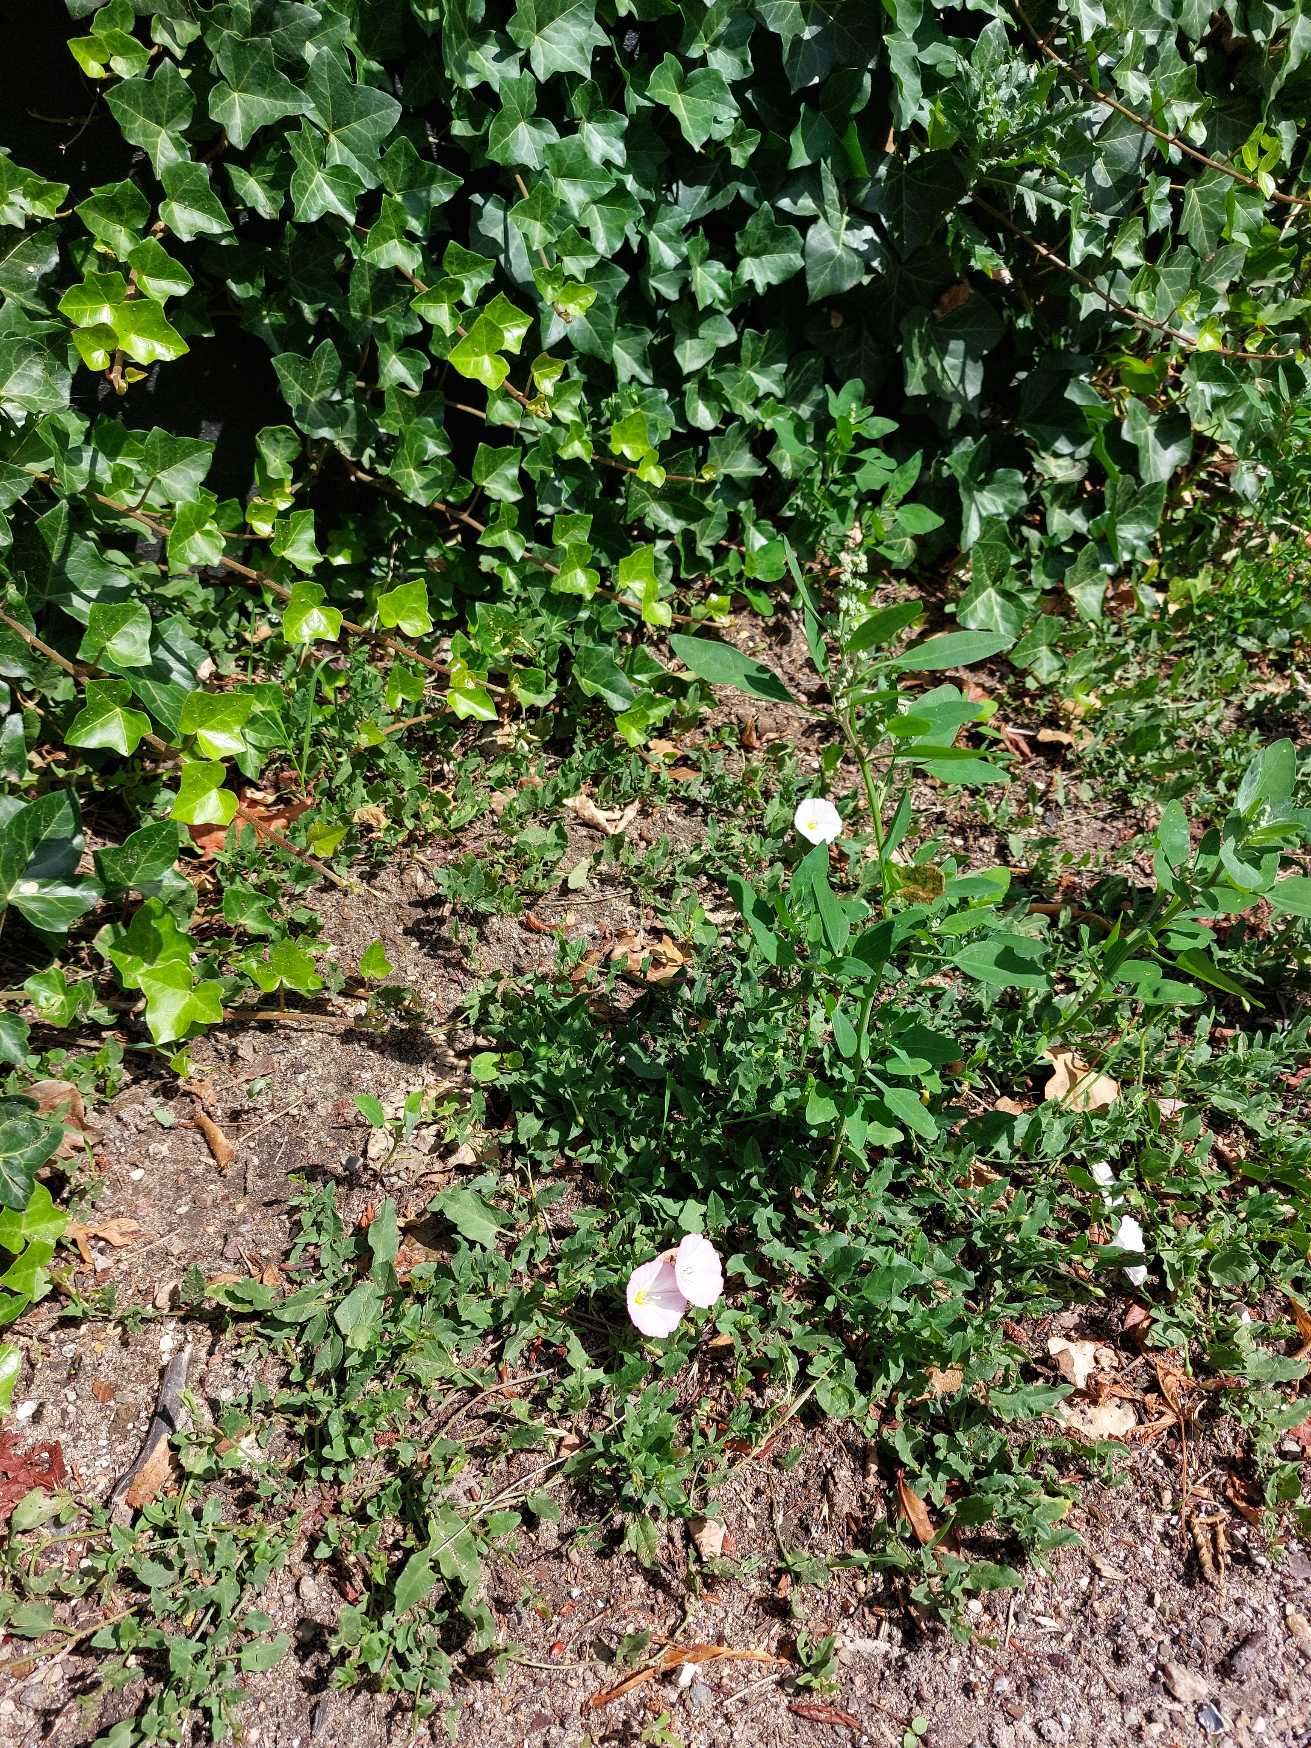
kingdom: Plantae
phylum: Tracheophyta
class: Magnoliopsida
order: Solanales
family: Convolvulaceae
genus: Convolvulus
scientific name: Convolvulus arvensis
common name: Ager-snerle
